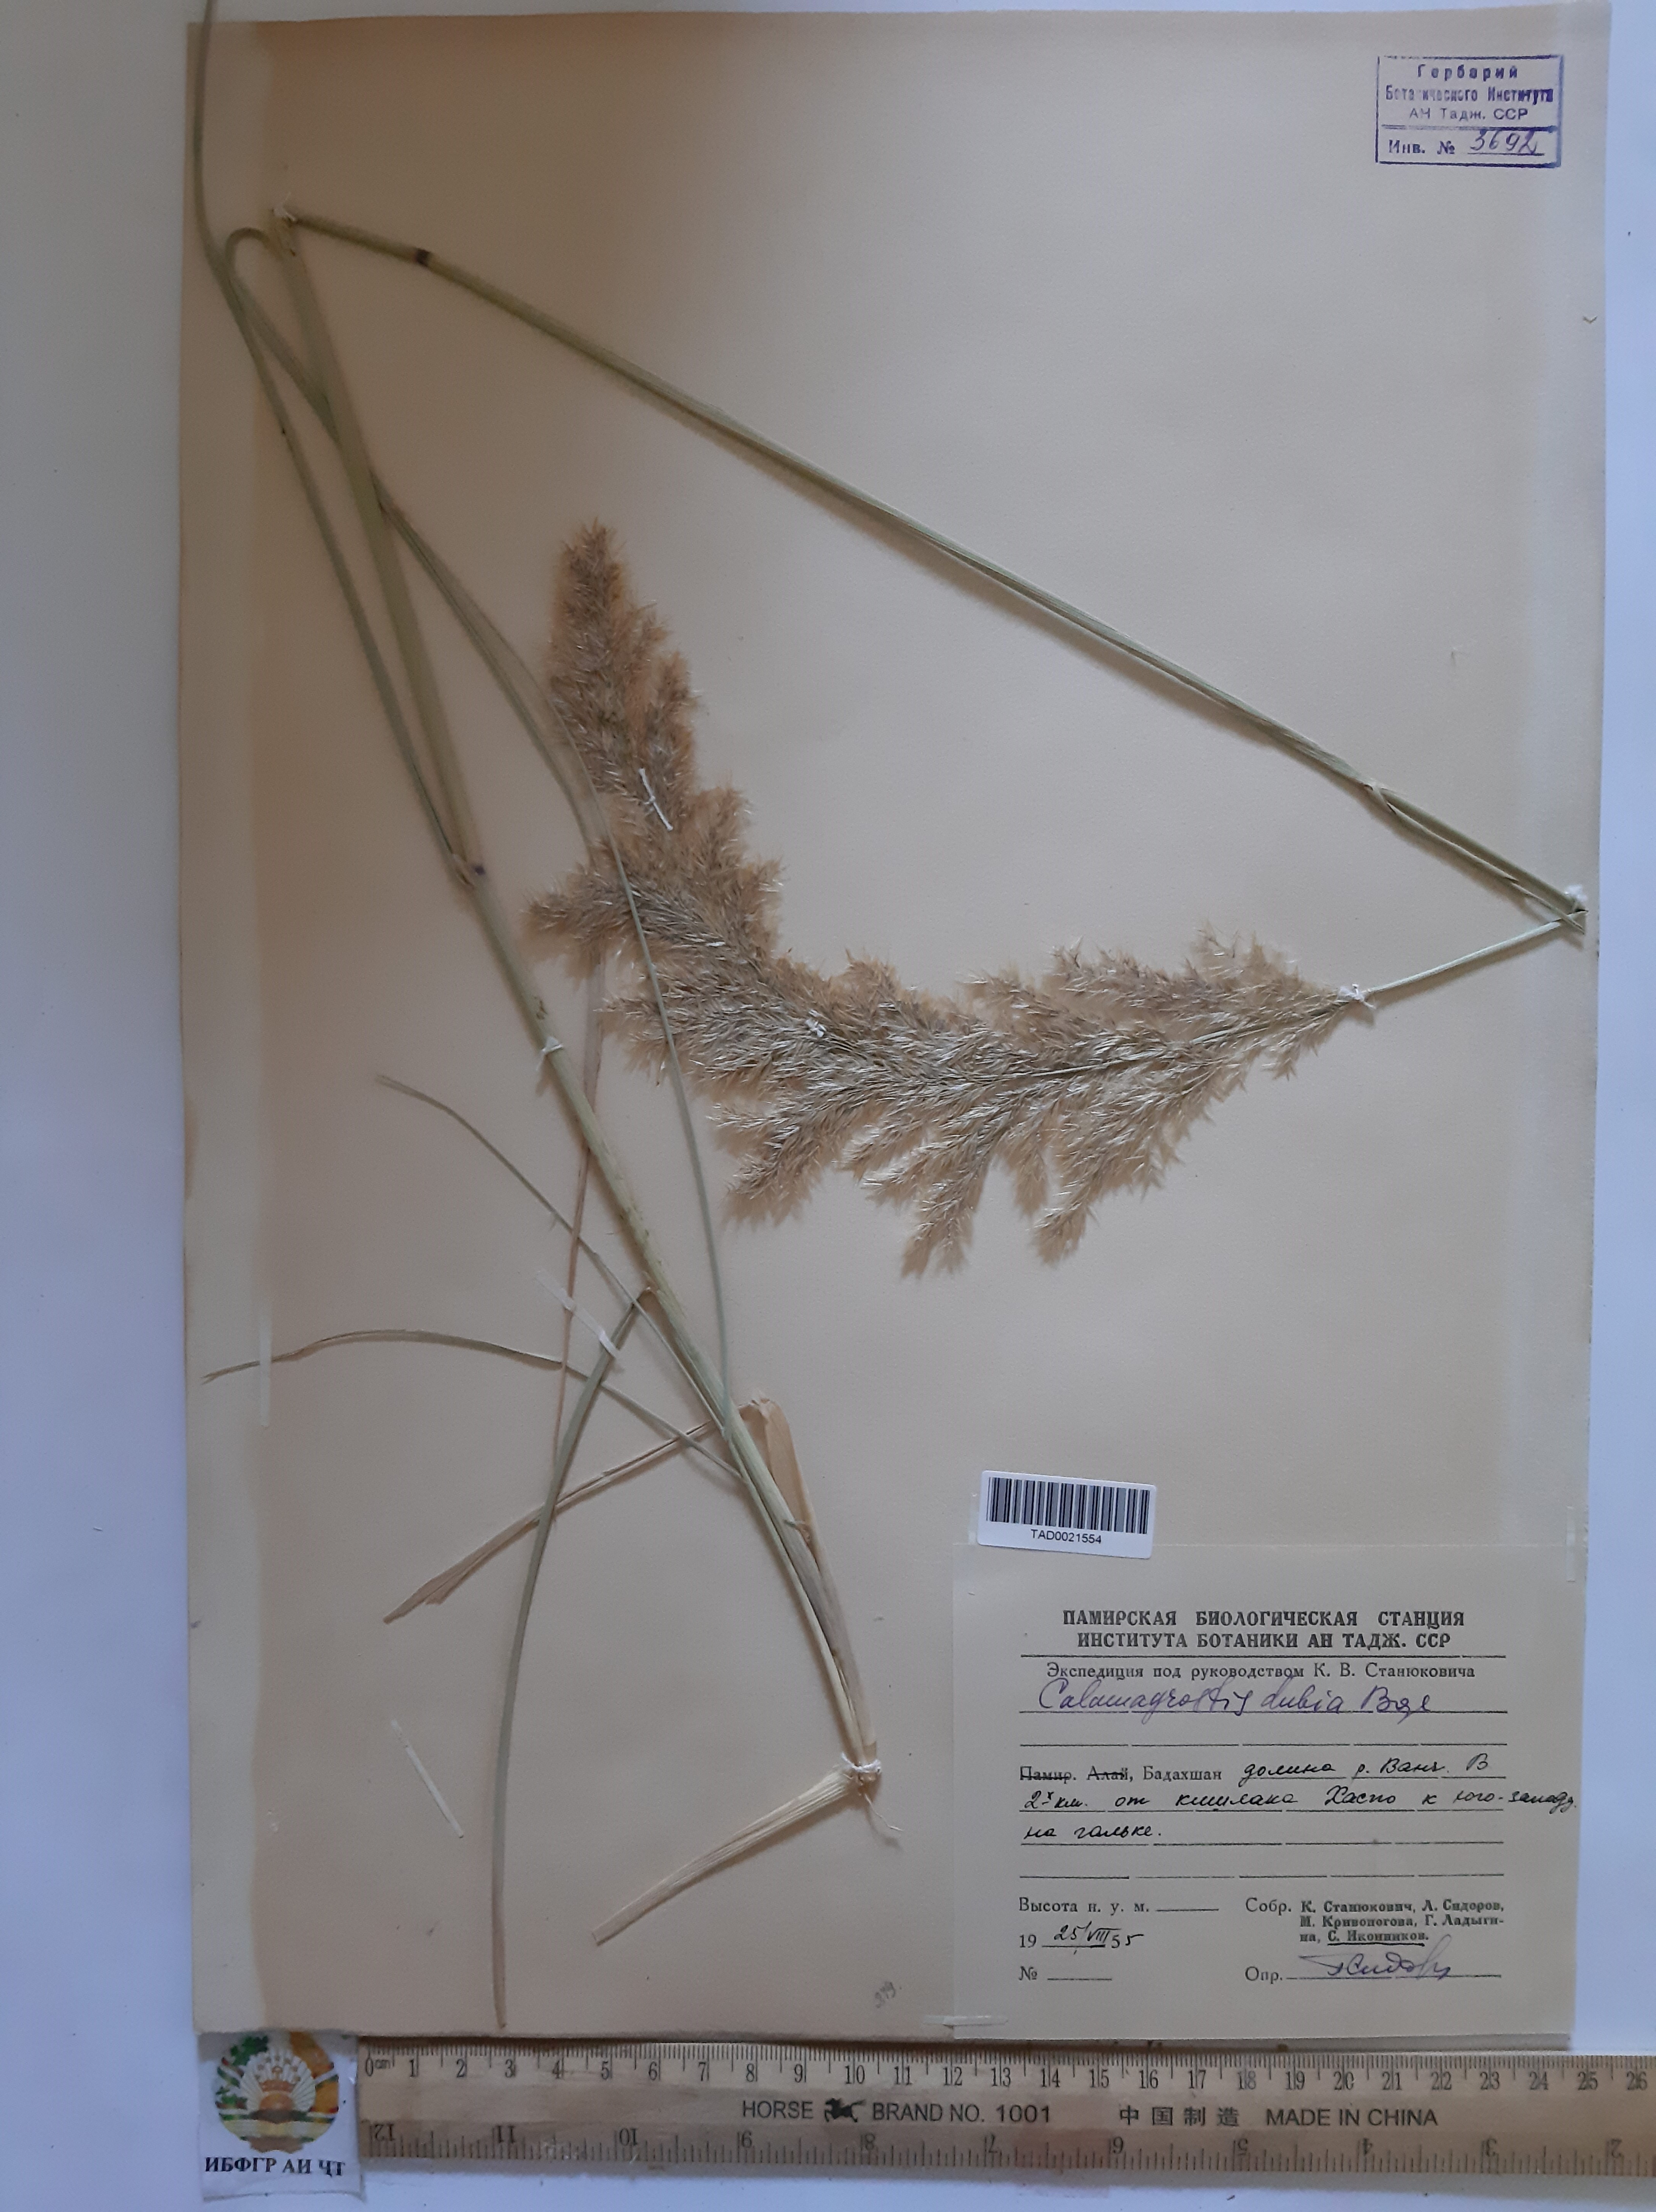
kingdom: Plantae
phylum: Tracheophyta
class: Liliopsida
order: Poales
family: Poaceae
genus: Calamagrostis
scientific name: Calamagrostis pseudophragmites
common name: Coastal small-reed
